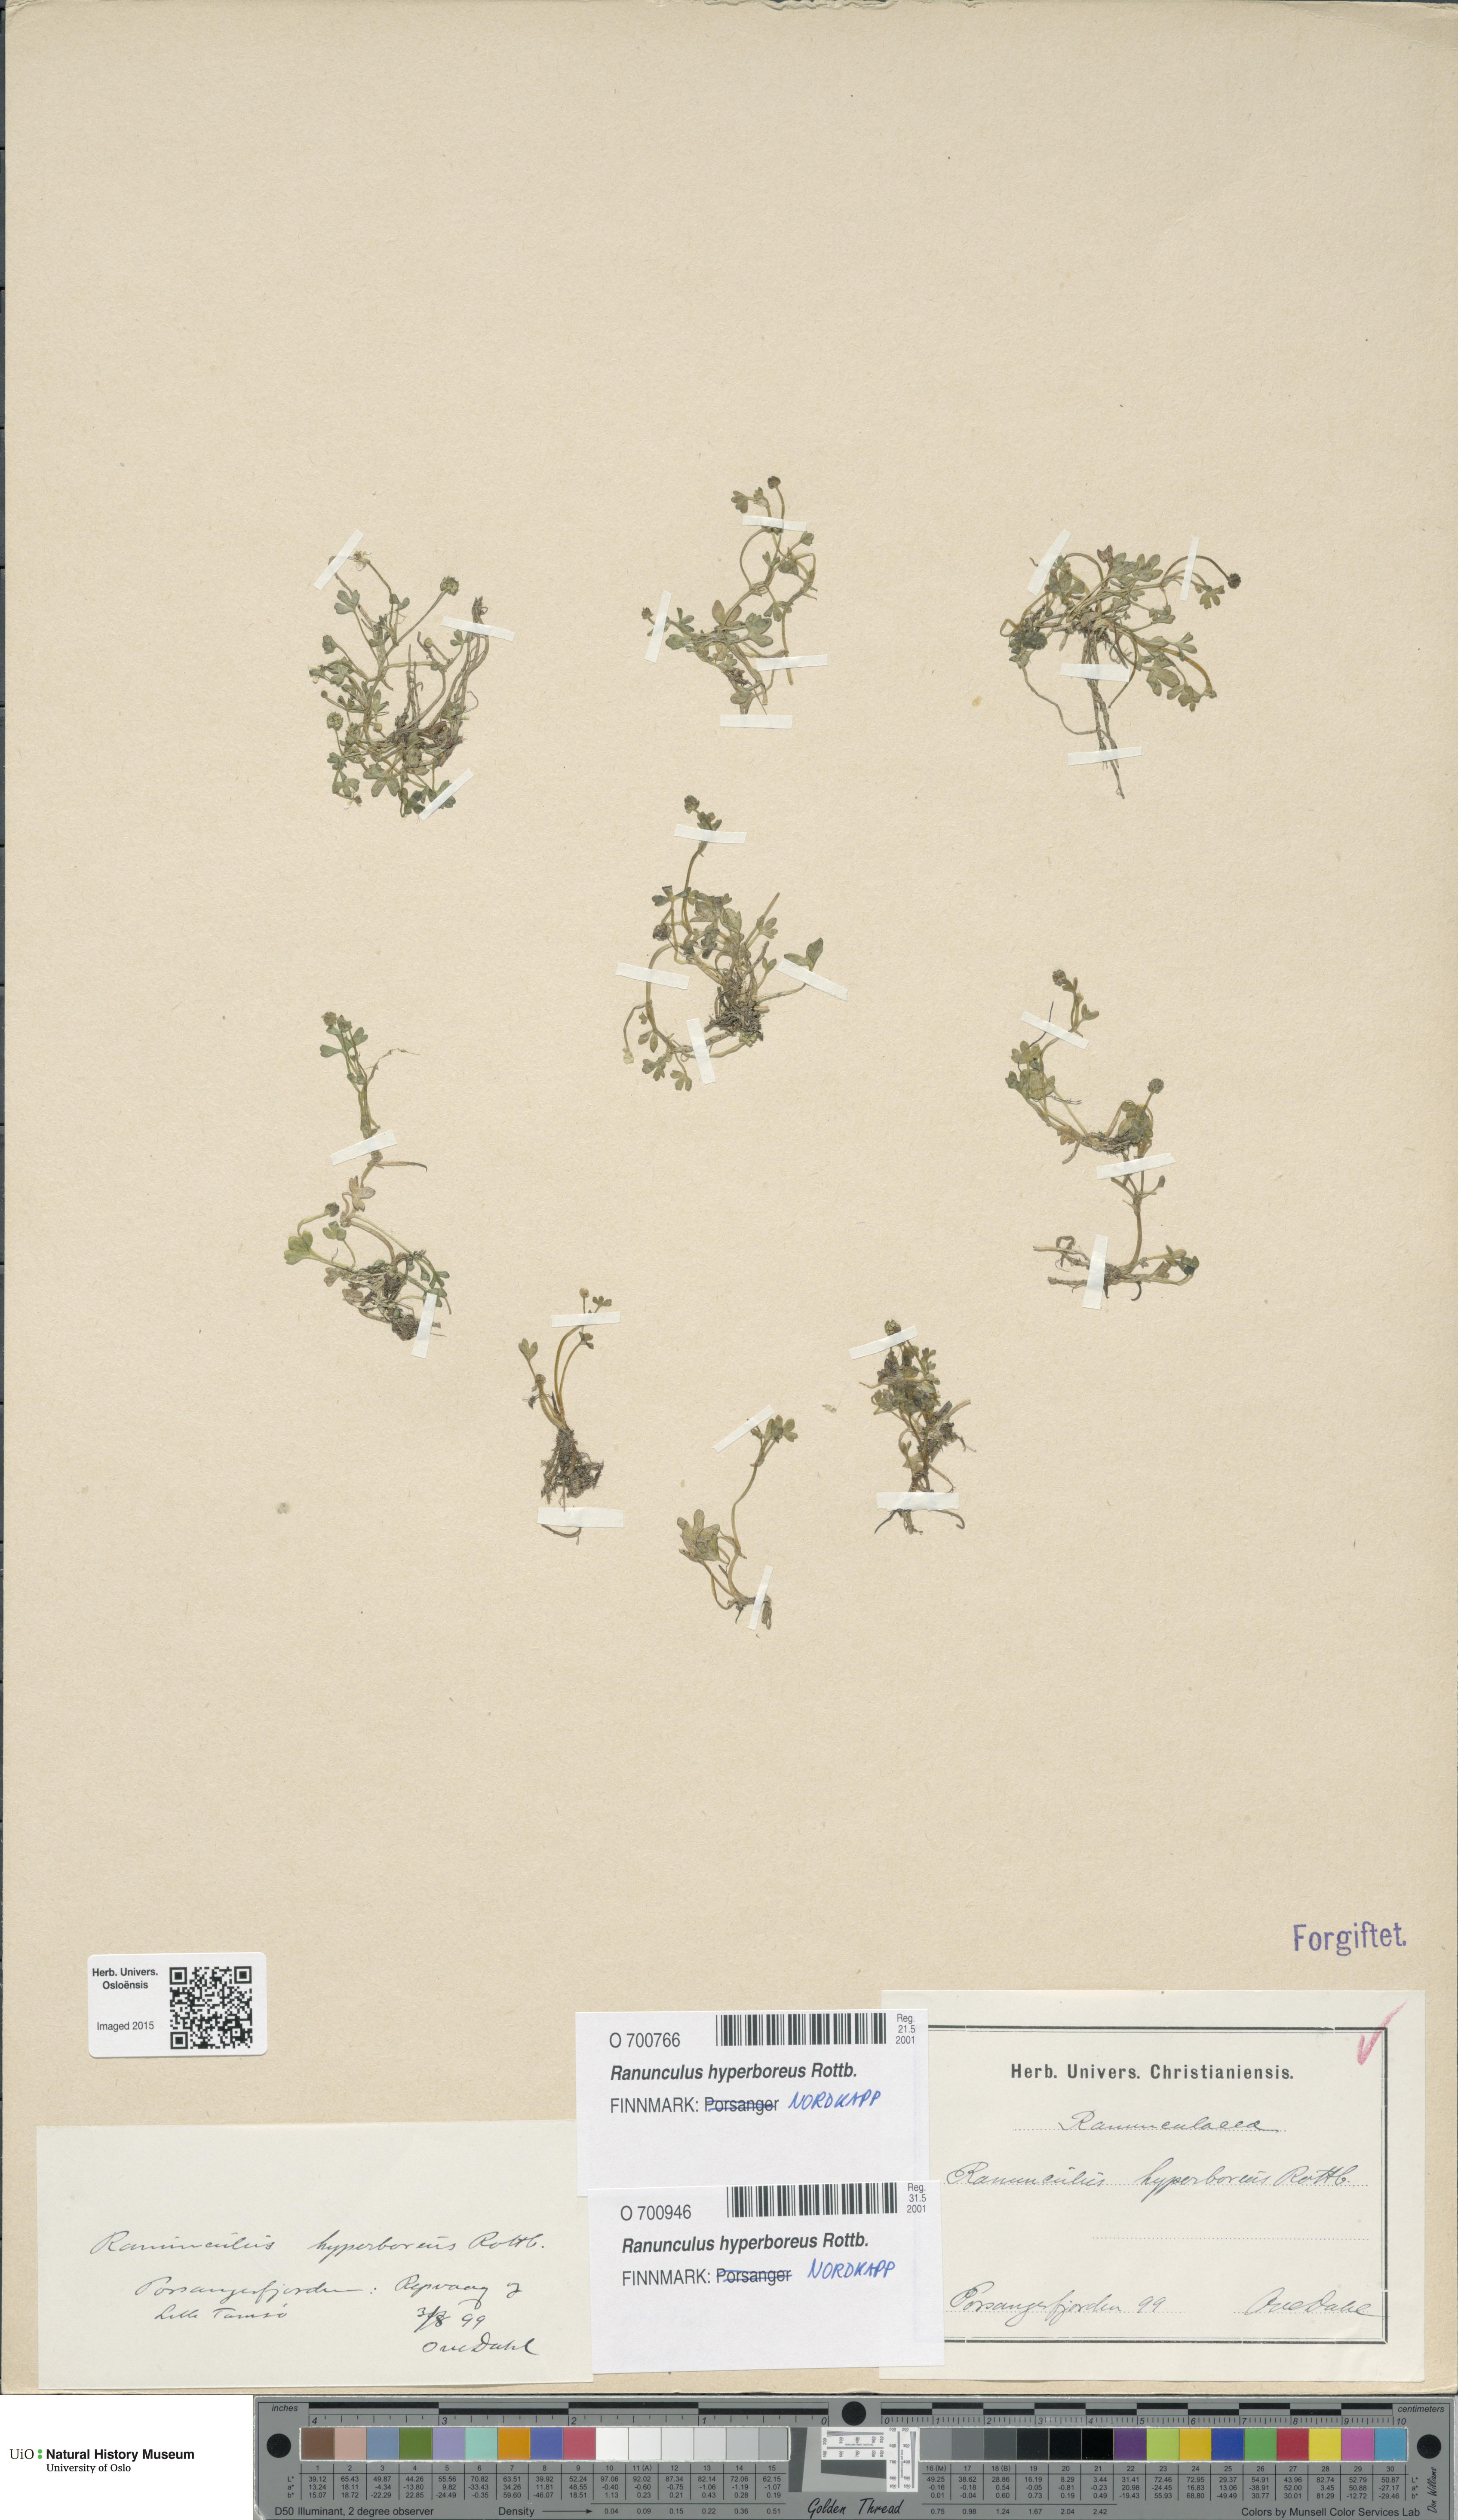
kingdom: Plantae
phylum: Tracheophyta
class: Magnoliopsida
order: Ranunculales
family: Ranunculaceae
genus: Ranunculus
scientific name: Ranunculus hyperboreus
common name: Arctic buttercup
